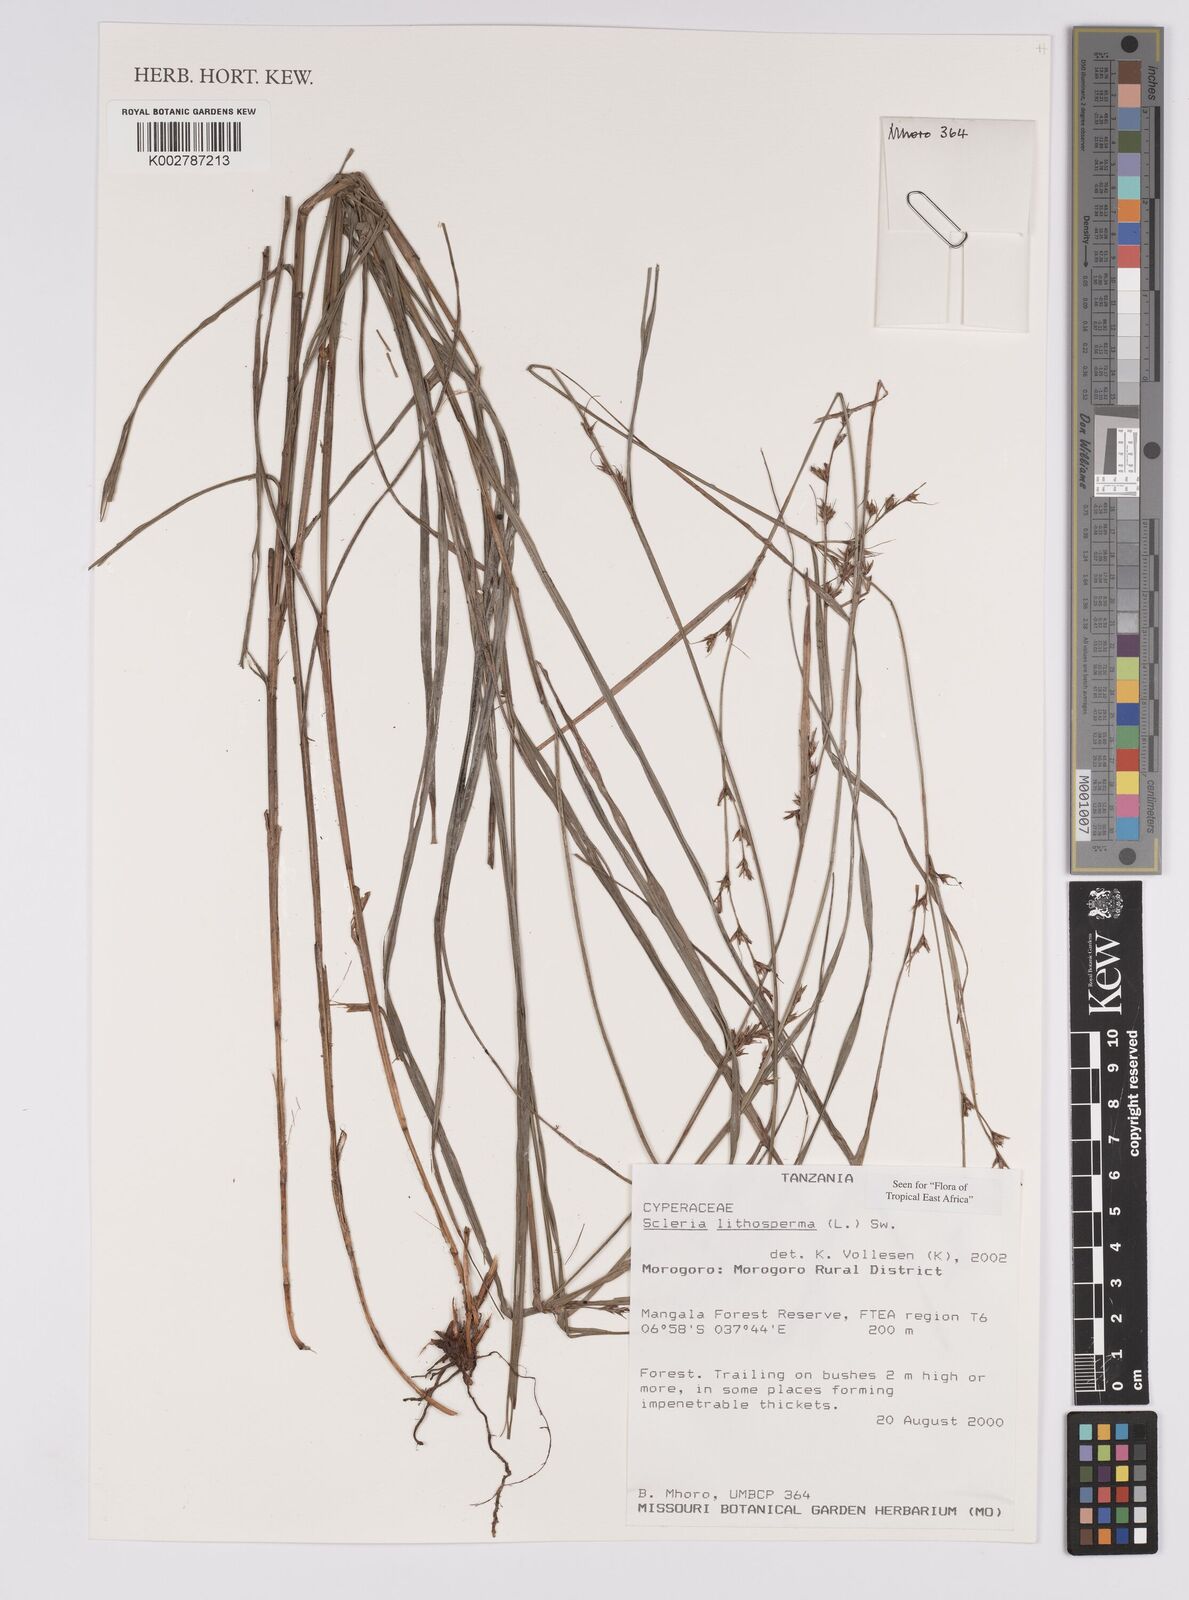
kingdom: Plantae
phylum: Tracheophyta
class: Liliopsida
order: Poales
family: Cyperaceae
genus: Scleria
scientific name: Scleria lithosperma
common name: Florida keys nut-rush
